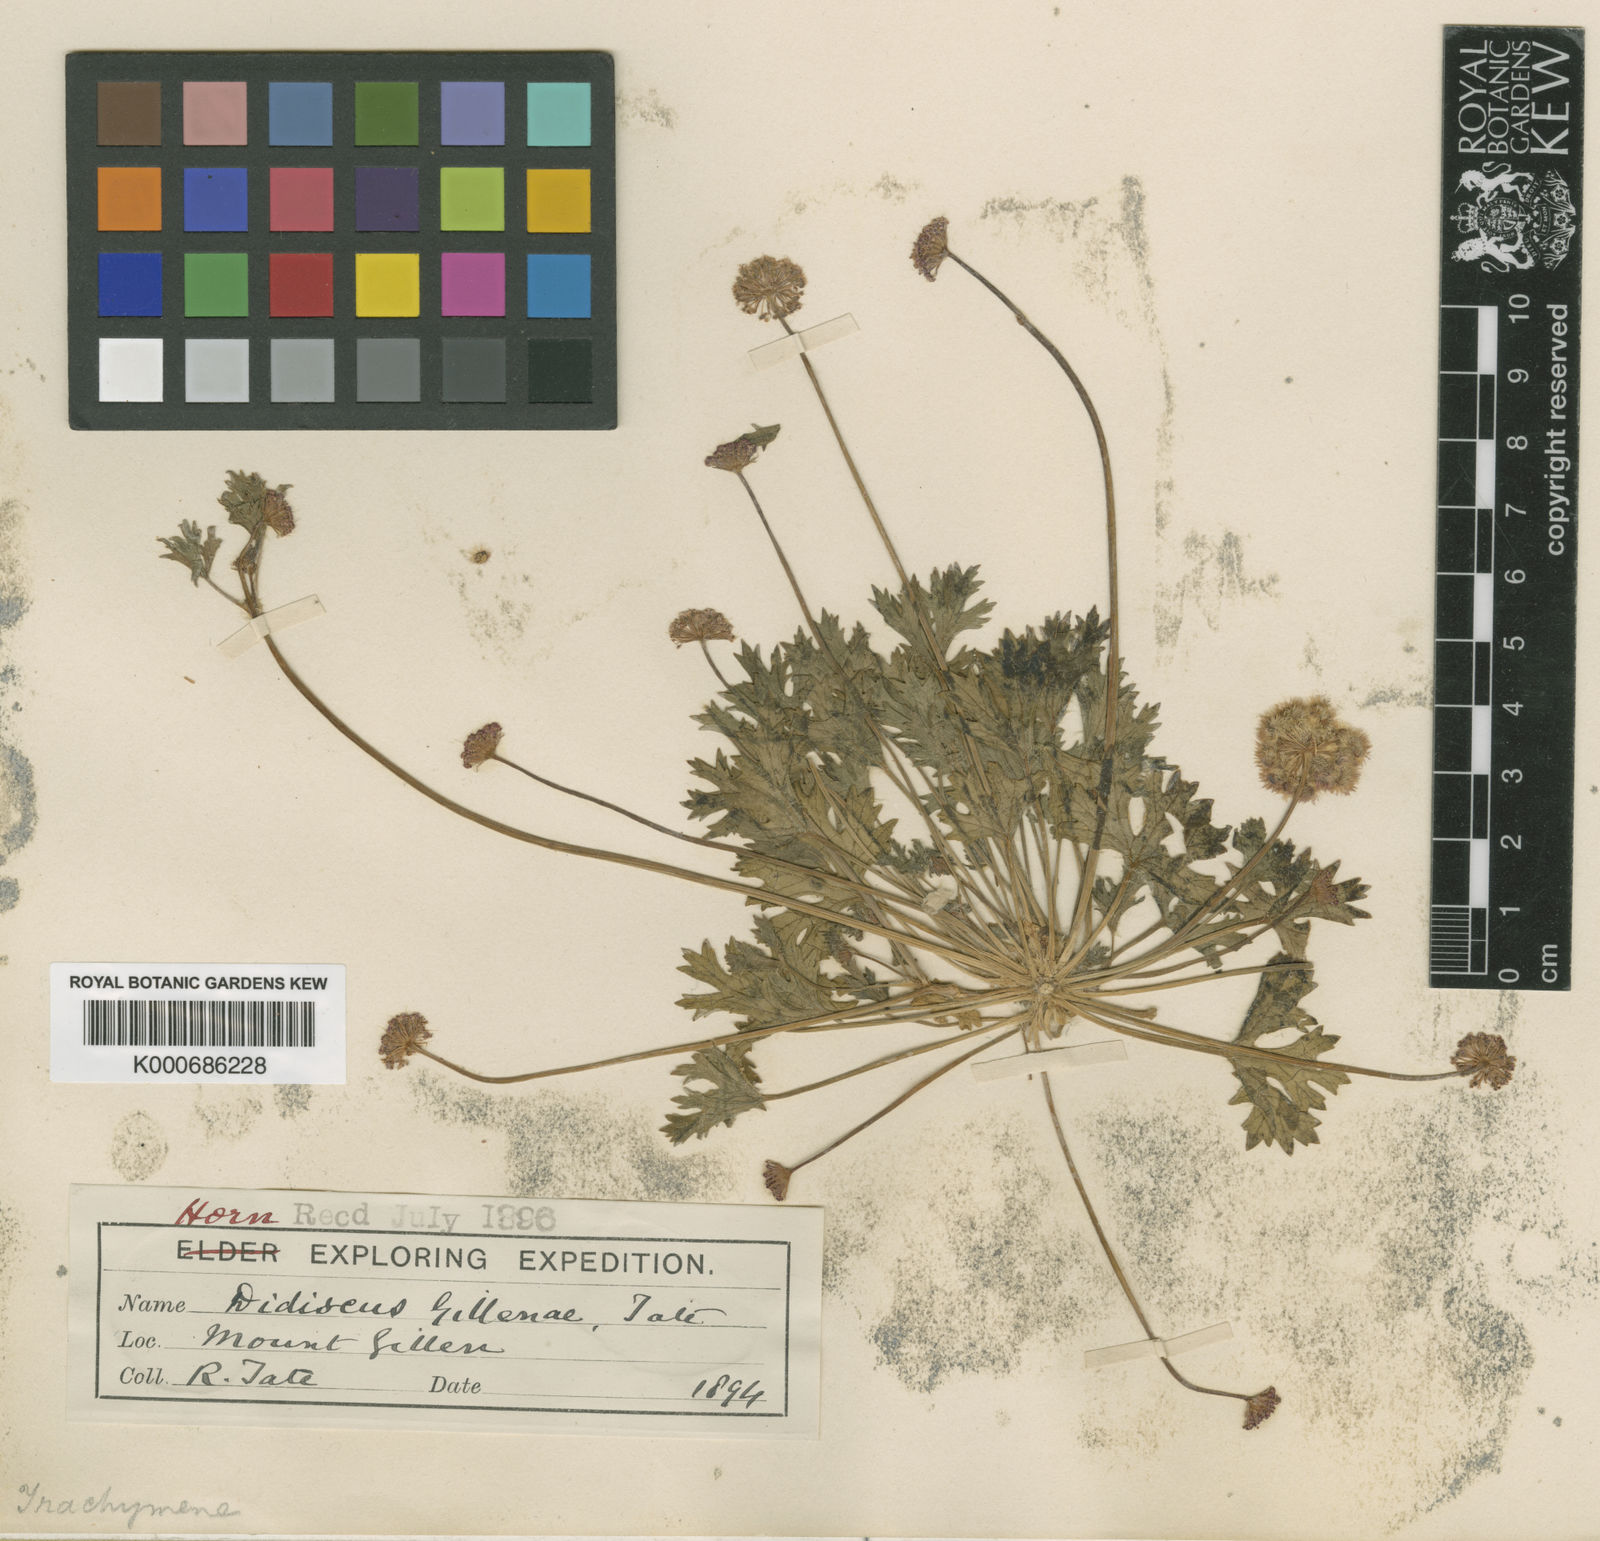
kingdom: Plantae
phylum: Tracheophyta
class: Magnoliopsida
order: Apiales
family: Araliaceae
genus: Trachymene
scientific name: Trachymene gilleniae
